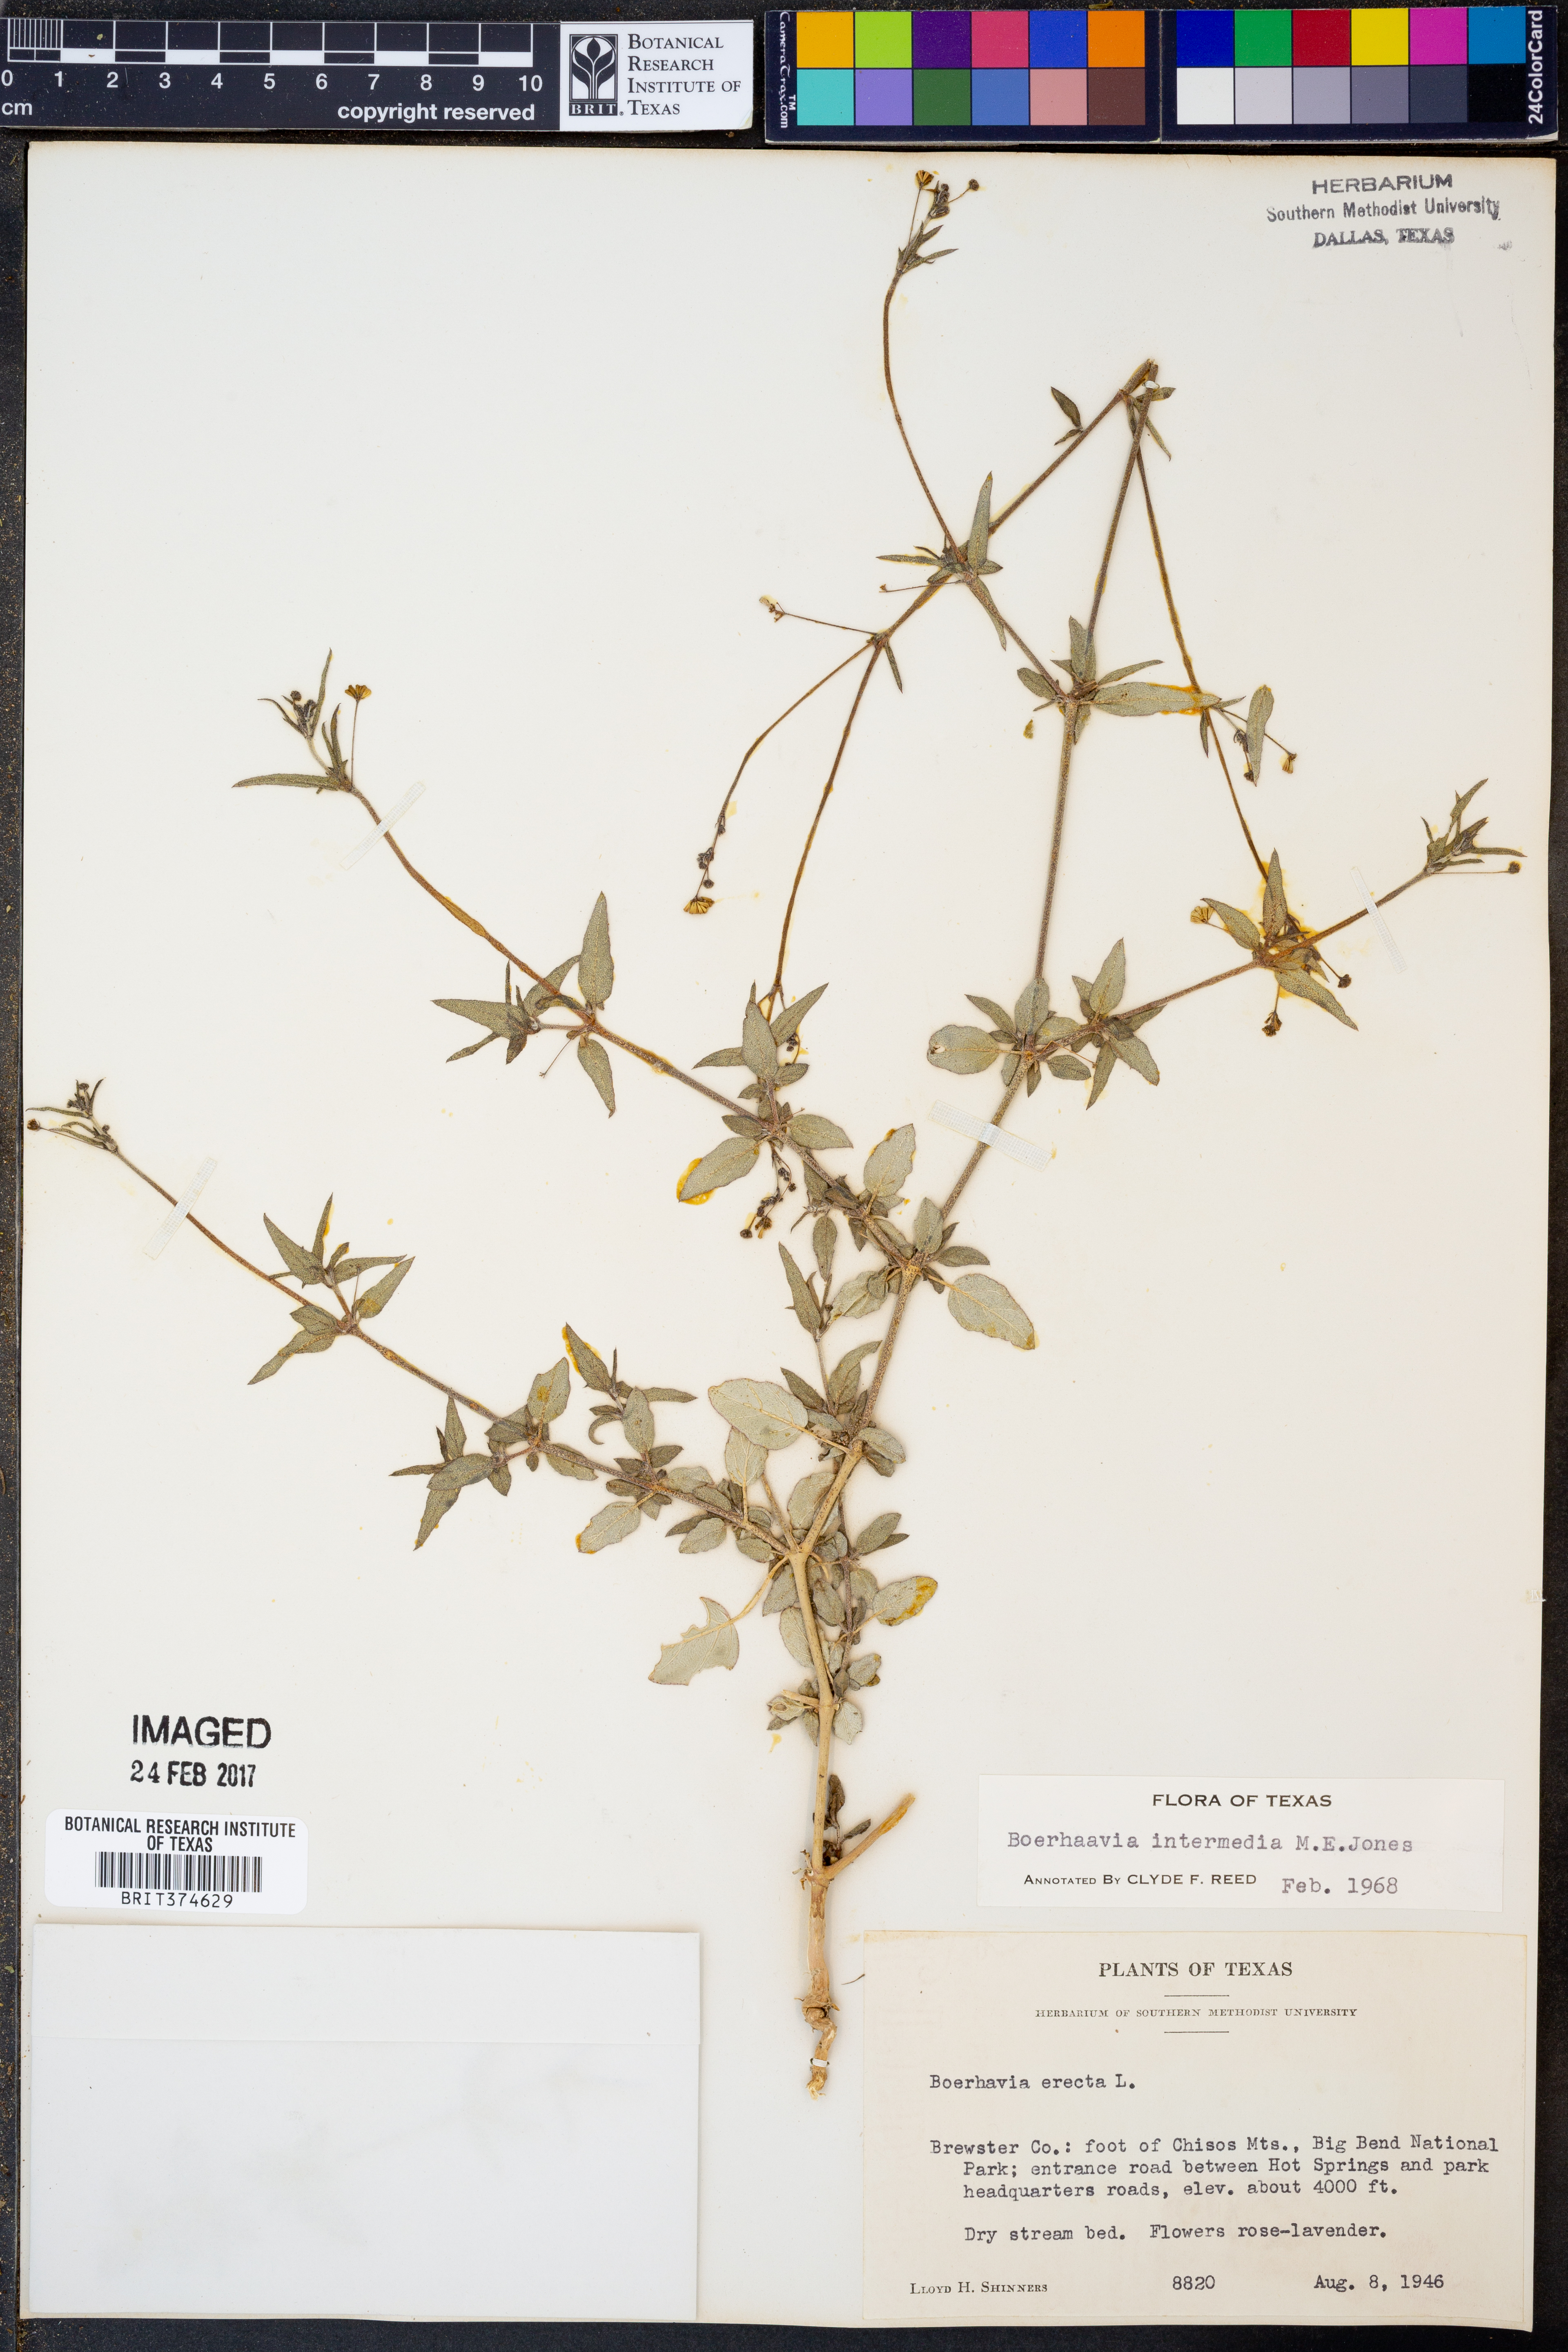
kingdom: Plantae
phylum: Tracheophyta
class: Magnoliopsida
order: Caryophyllales
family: Nyctaginaceae
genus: Boerhavia
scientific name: Boerhavia triquetra
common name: Creeping sticky-stem
